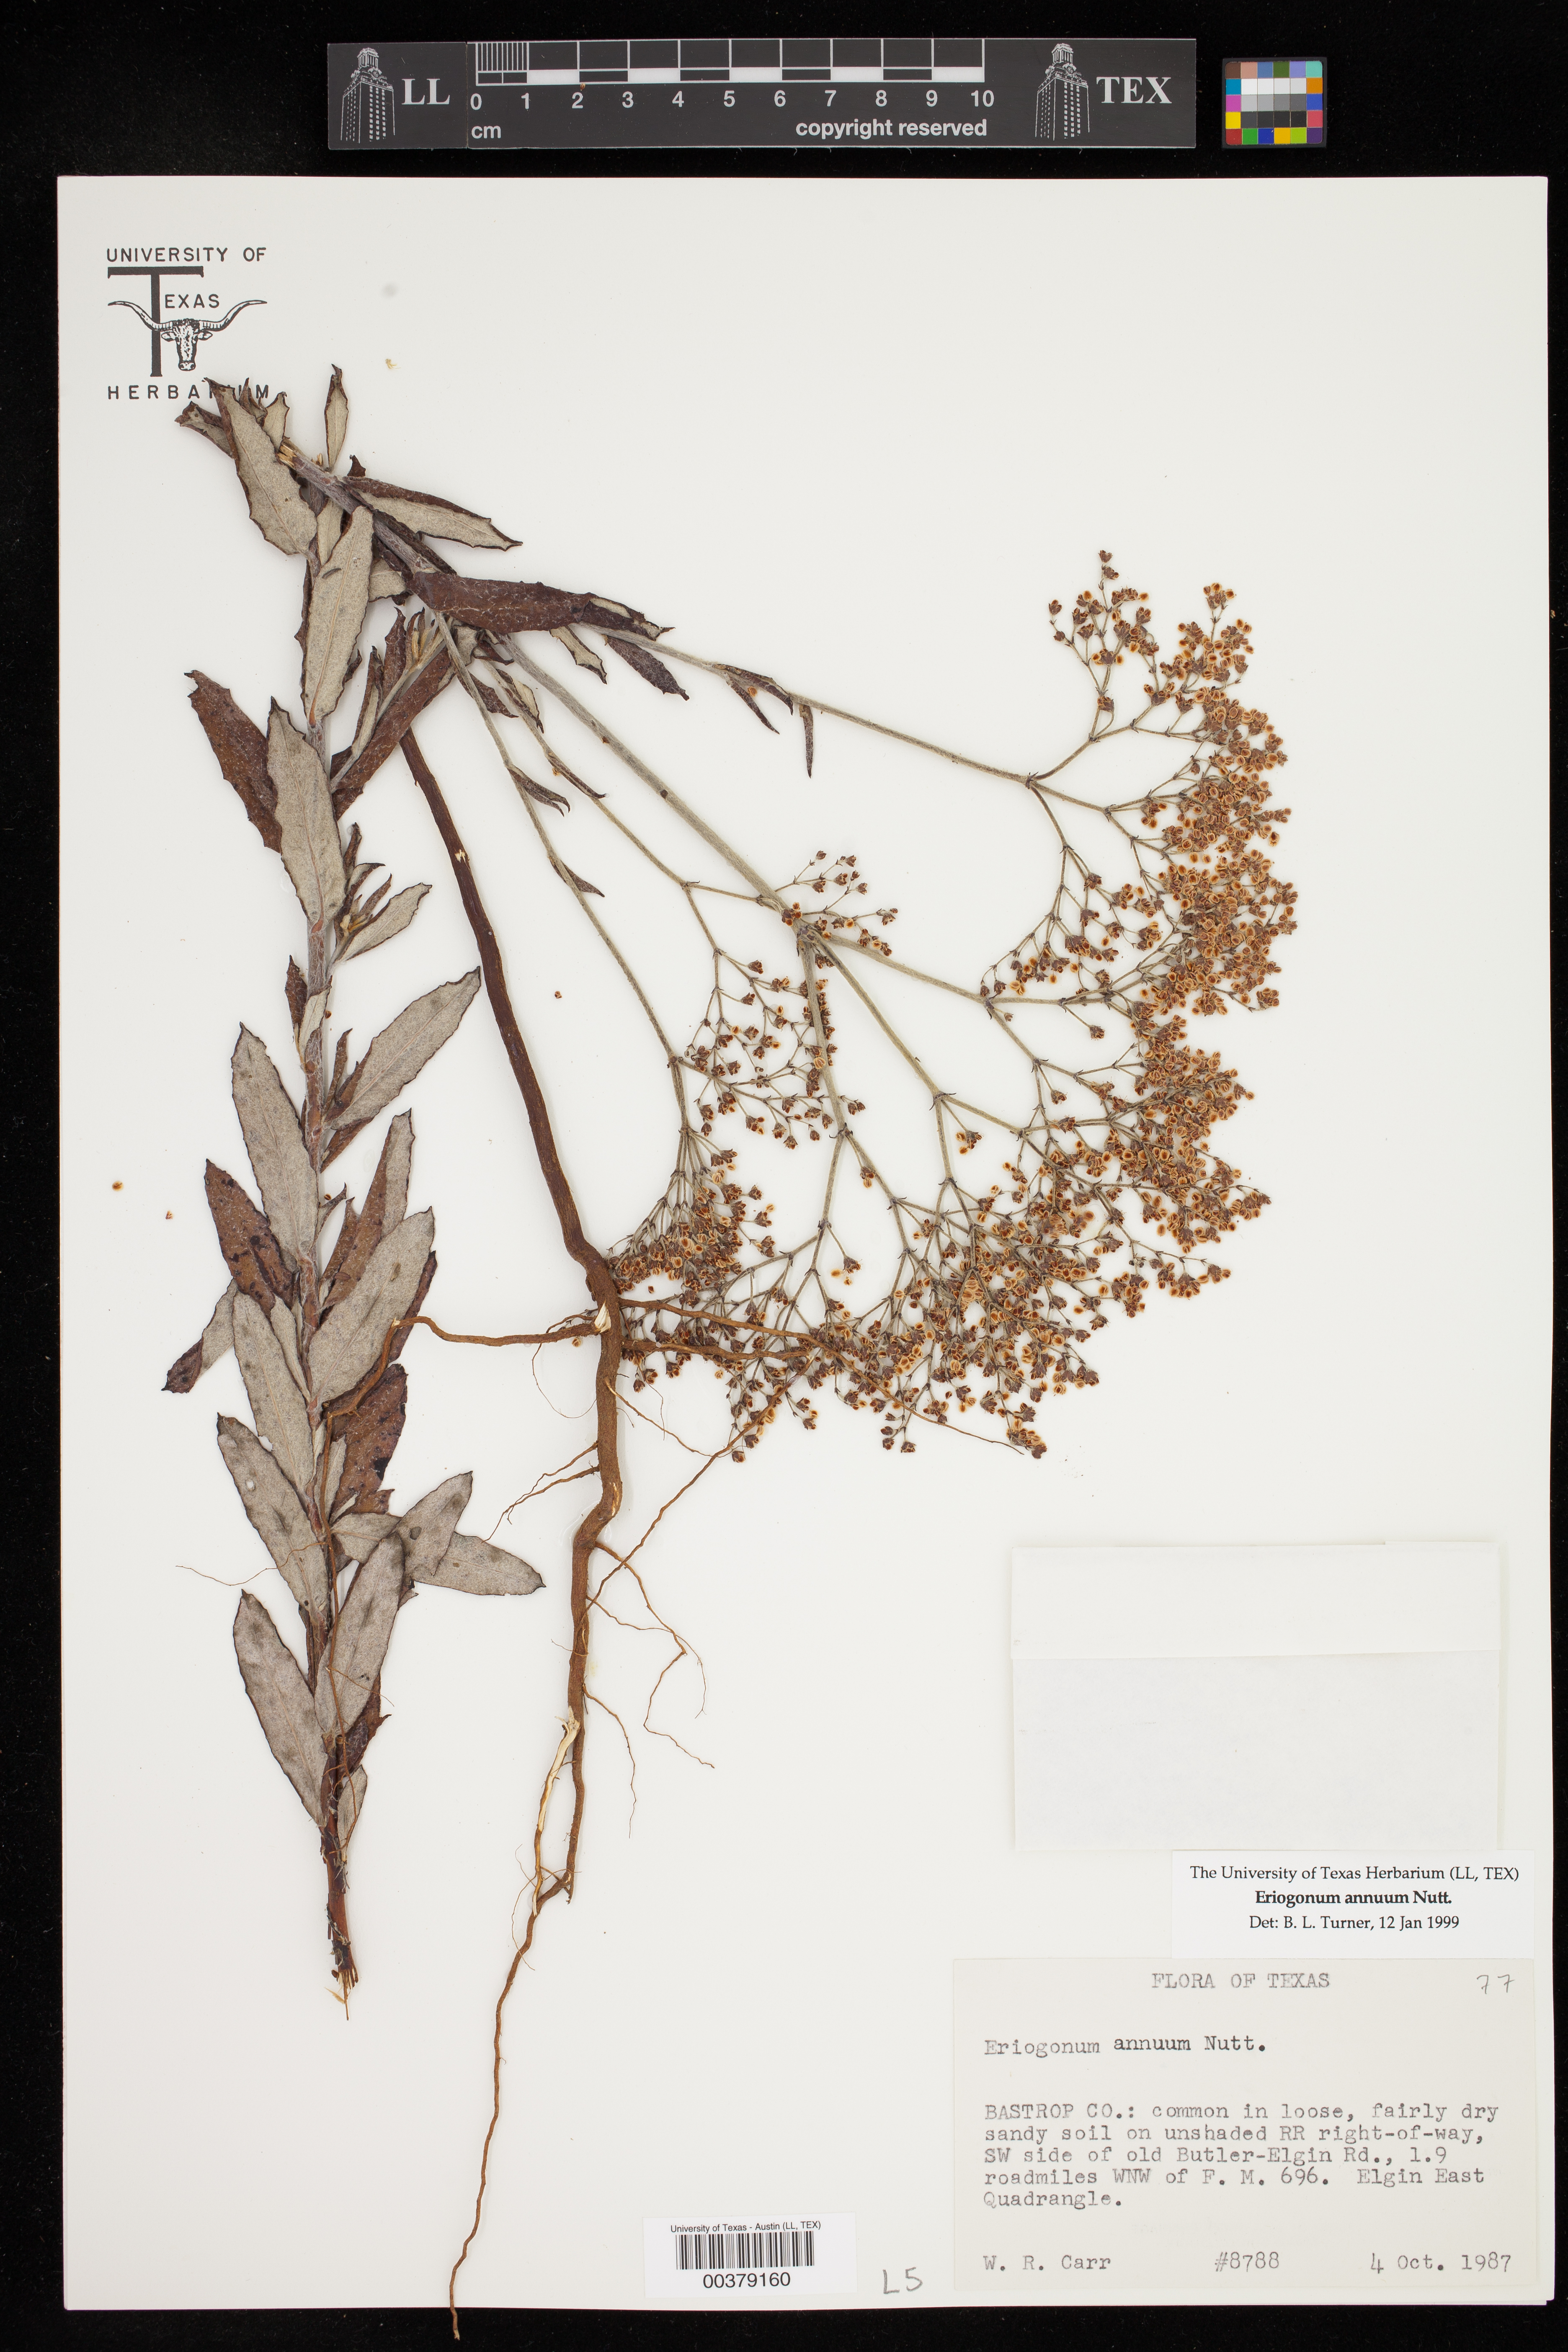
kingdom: Plantae
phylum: Tracheophyta
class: Magnoliopsida
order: Caryophyllales
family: Polygonaceae
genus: Eriogonum
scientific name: Eriogonum annuum
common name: Annual wild buckwheat
